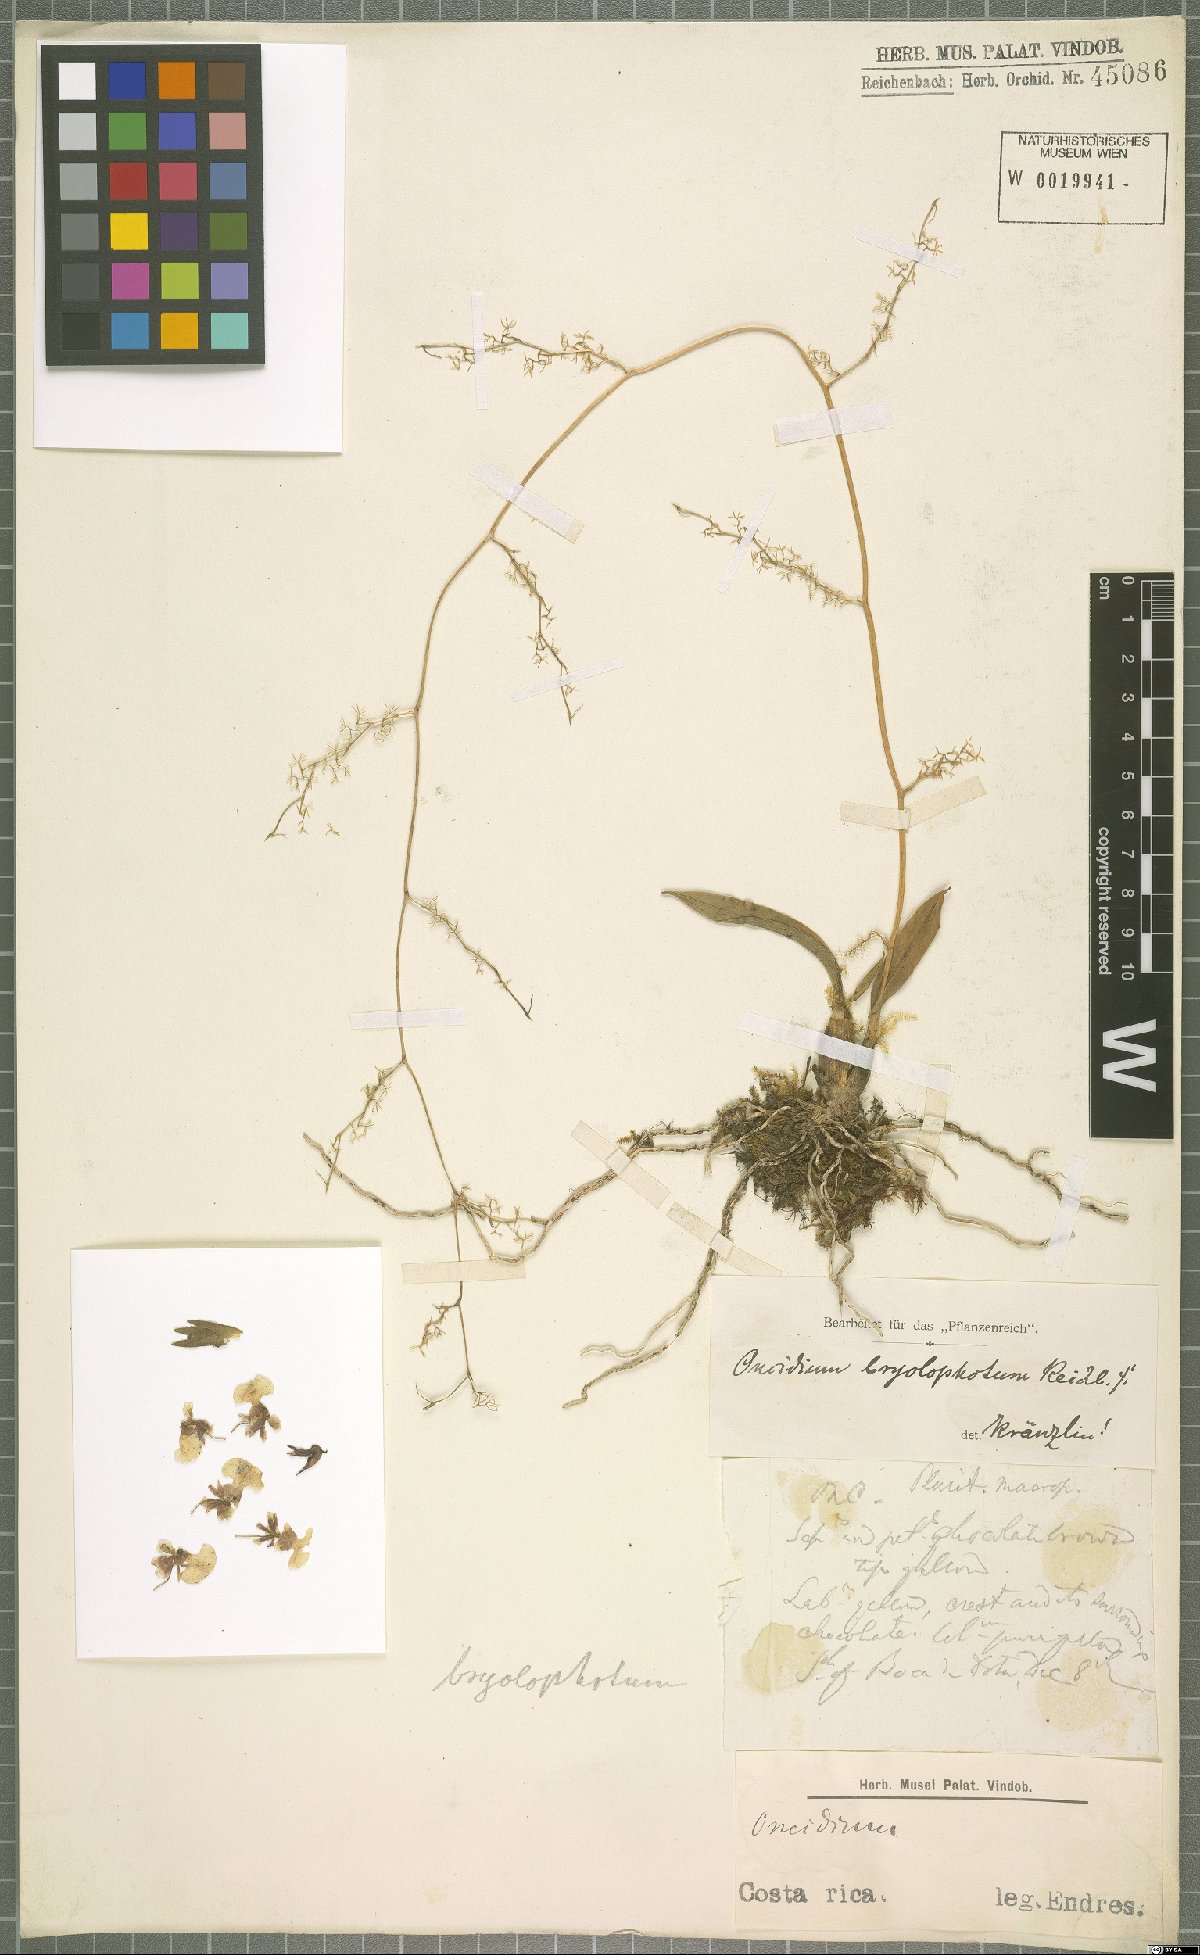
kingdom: Plantae
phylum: Tracheophyta
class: Liliopsida
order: Asparagales
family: Orchidaceae
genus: Oncidium
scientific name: Oncidium bryolophotum
